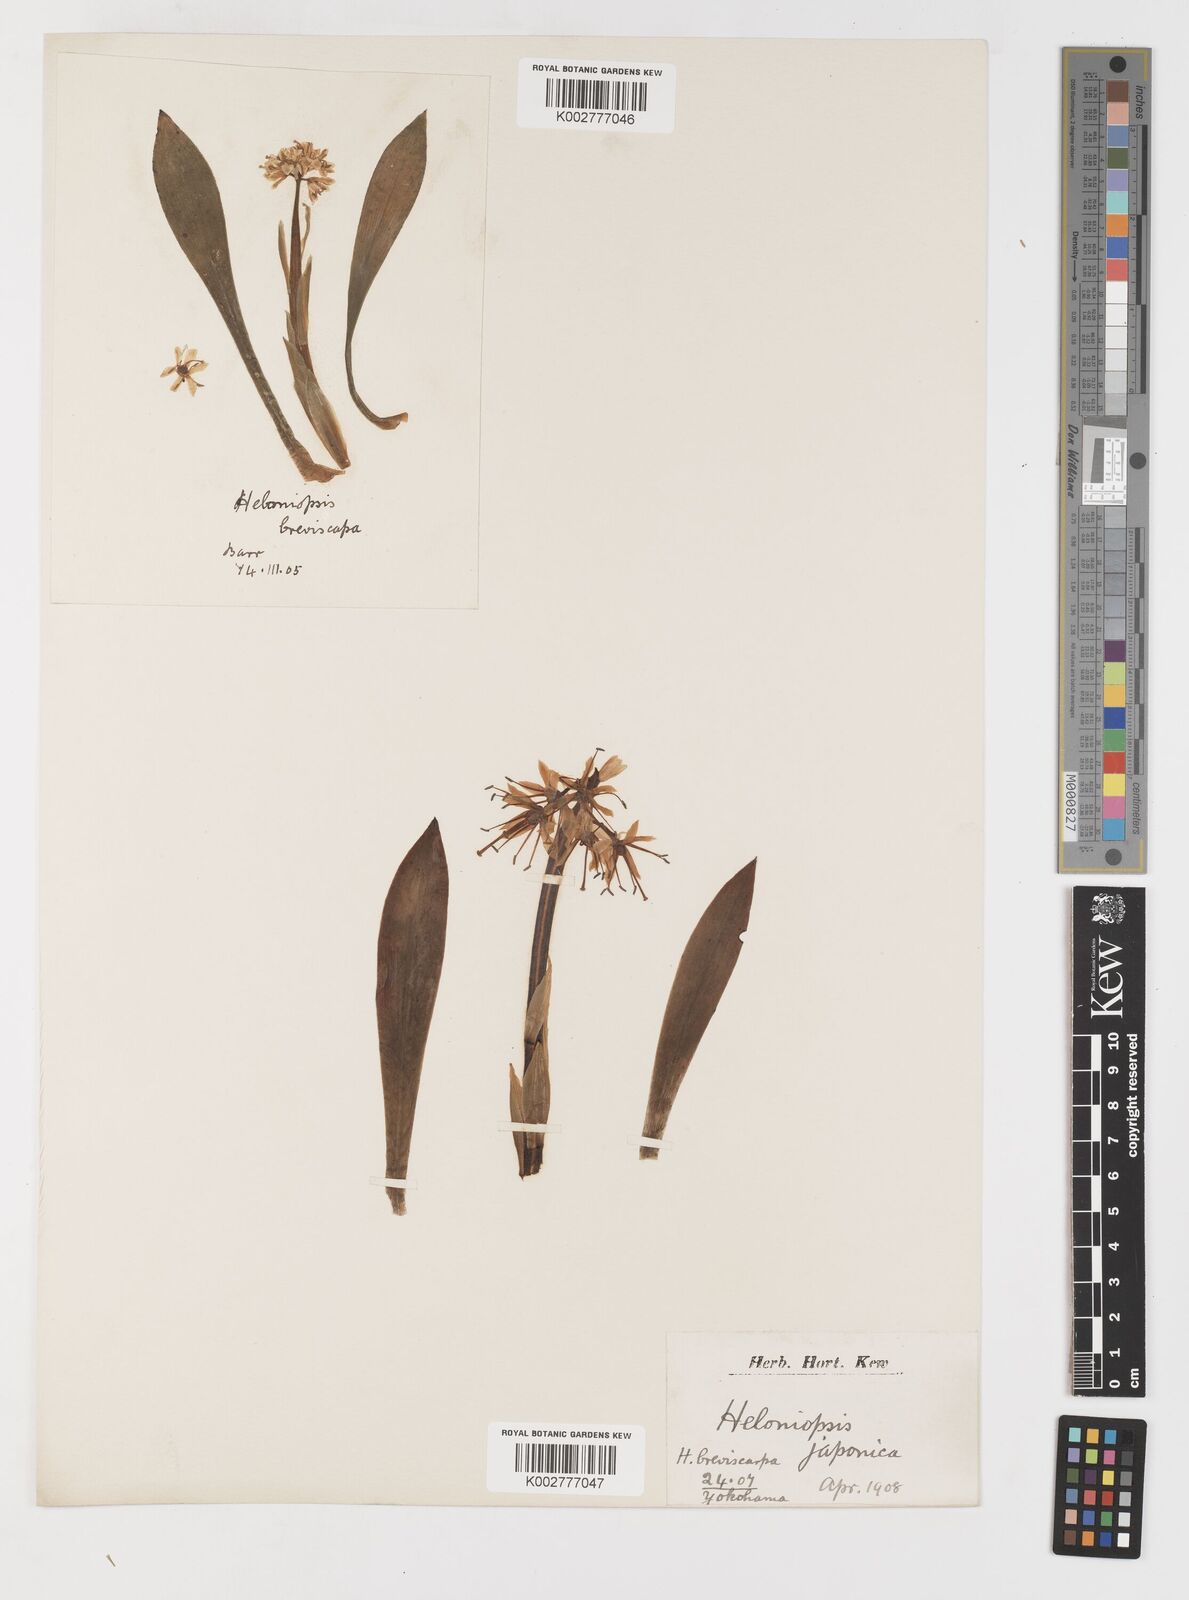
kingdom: Plantae
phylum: Tracheophyta
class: Liliopsida
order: Liliales
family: Melanthiaceae
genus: Helonias
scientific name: Helonias breviscapa
